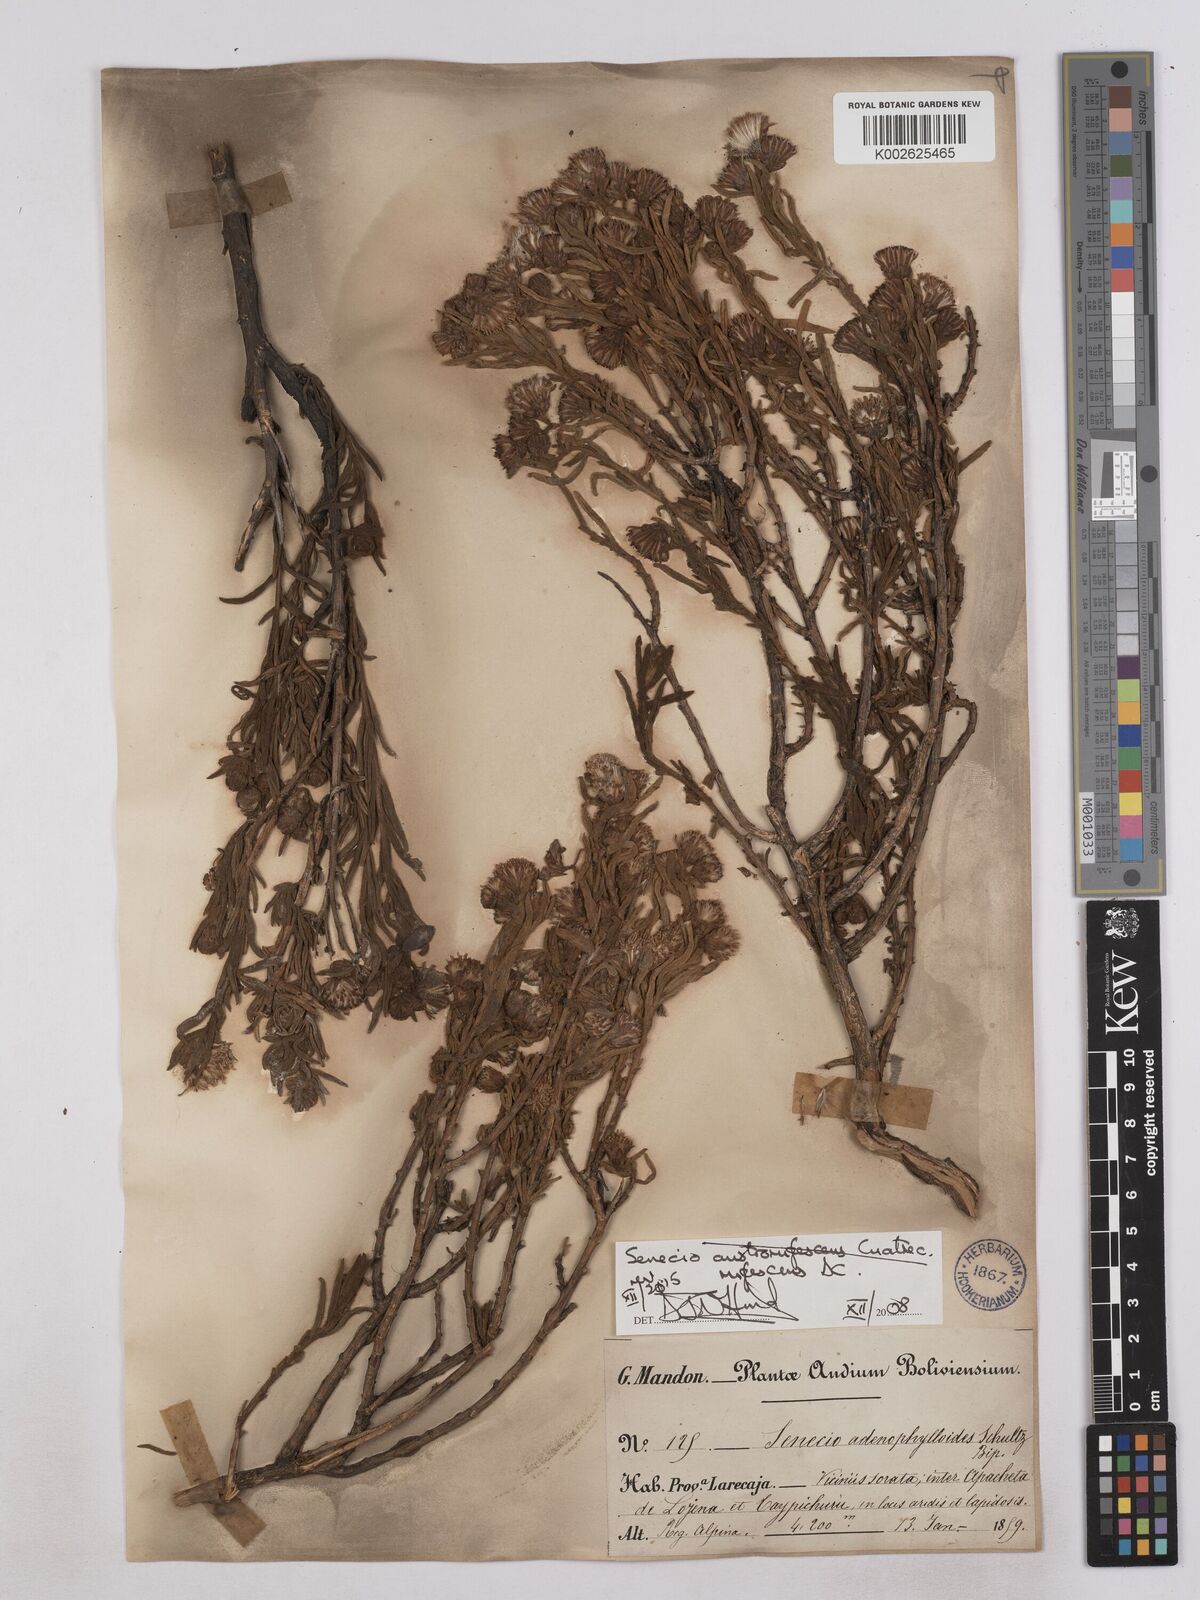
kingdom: Plantae
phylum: Tracheophyta
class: Magnoliopsida
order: Asterales
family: Asteraceae
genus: Culcitium
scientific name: Culcitium canescens
